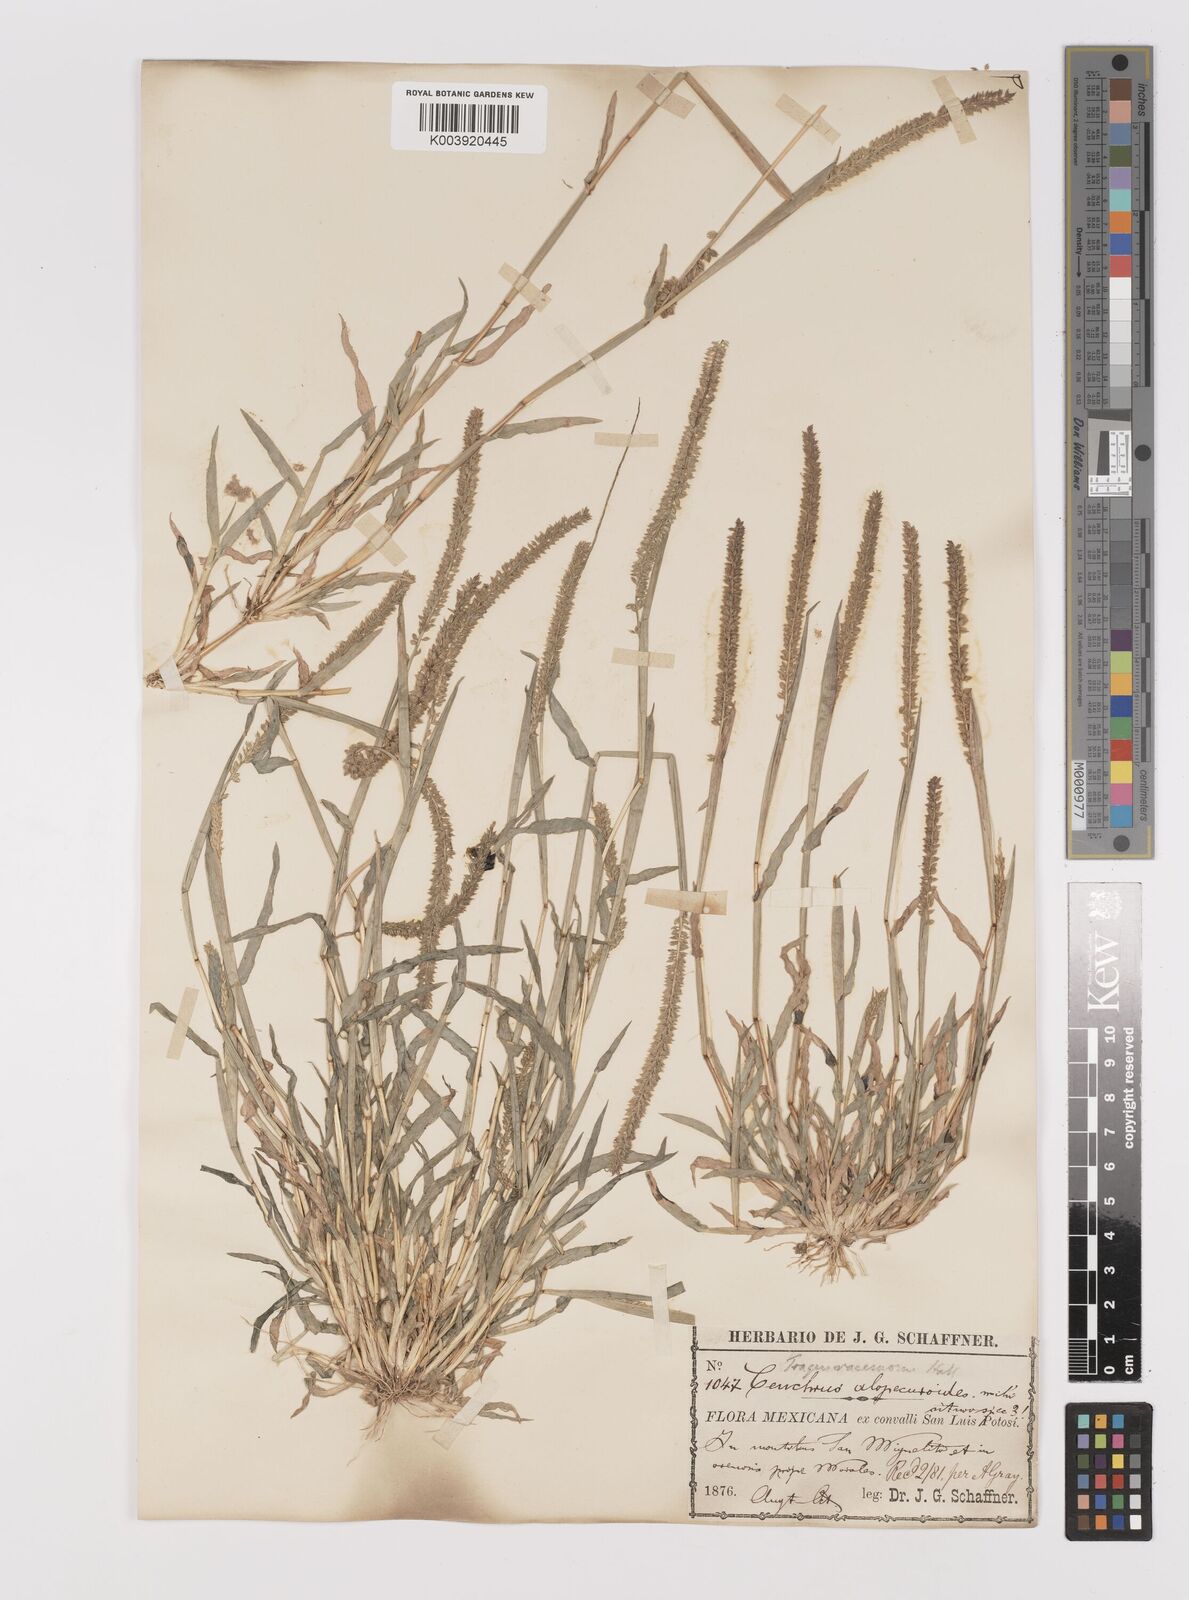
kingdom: Plantae
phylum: Tracheophyta
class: Liliopsida
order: Poales
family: Poaceae
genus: Tragus
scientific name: Tragus berteronianus
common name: African bur-grass
